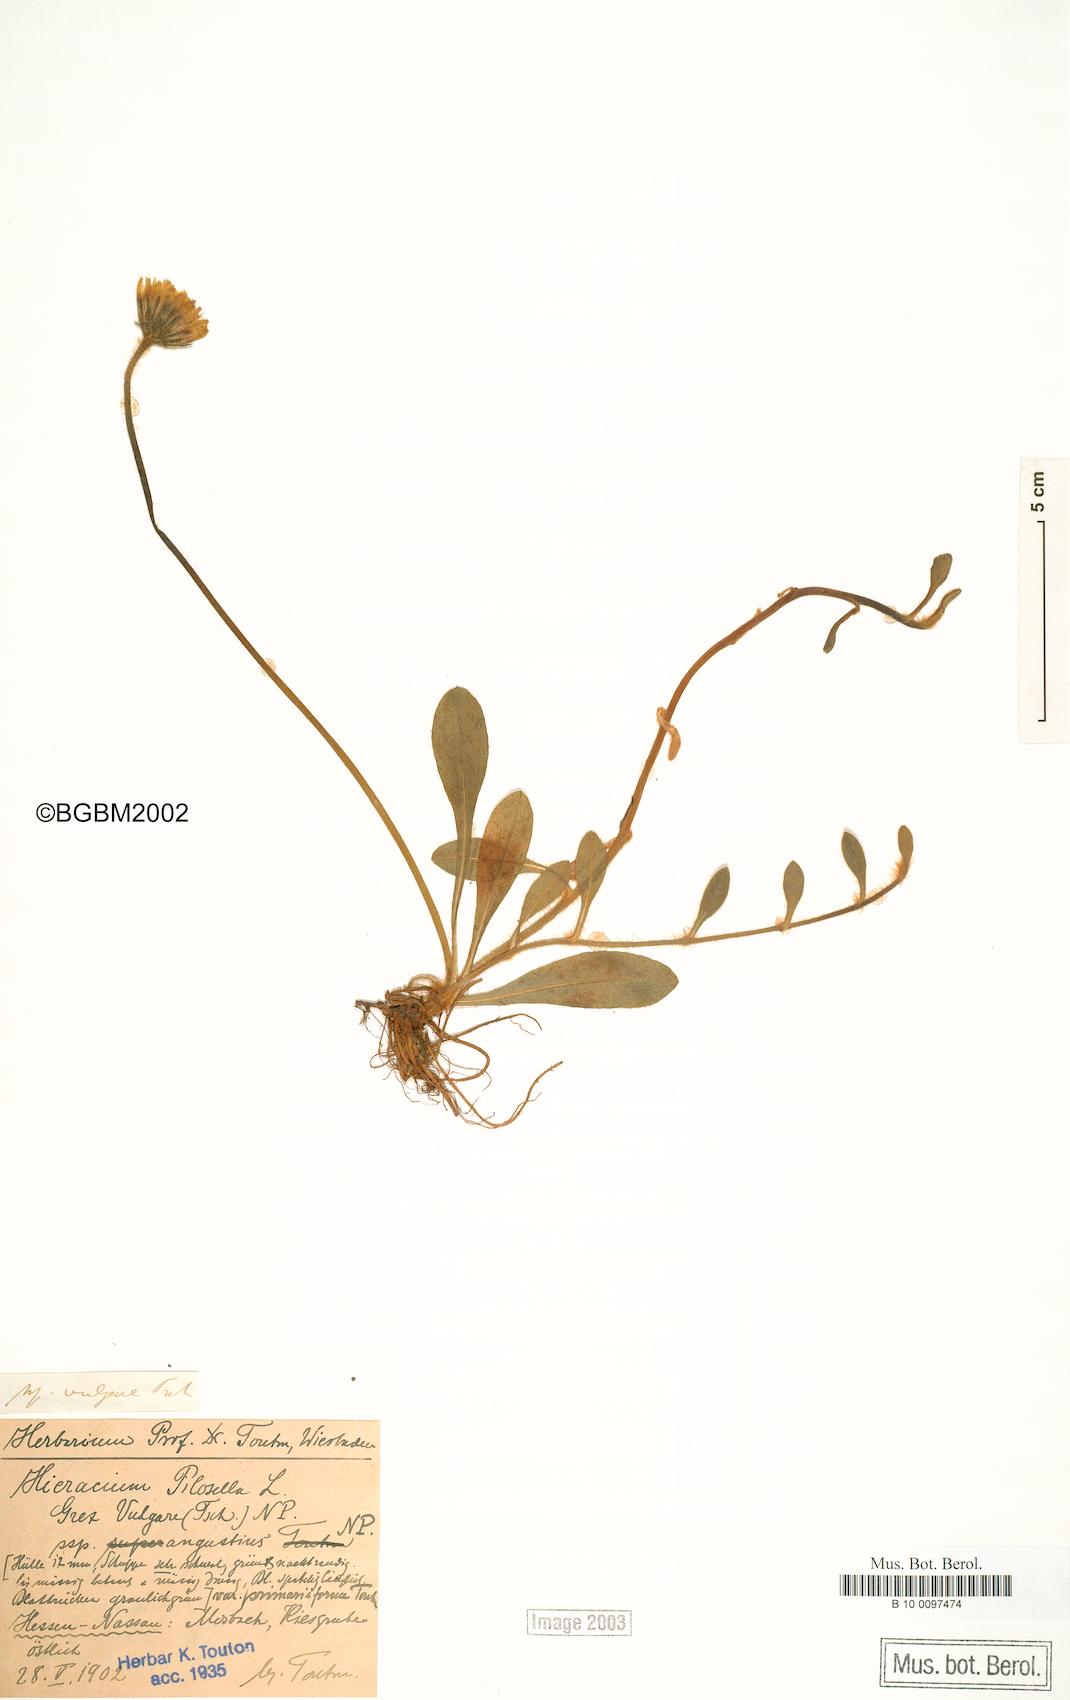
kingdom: Plantae
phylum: Tracheophyta
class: Magnoliopsida
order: Asterales
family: Asteraceae
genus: Pilosella
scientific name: Pilosella officinarum
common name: Mouse-ear hawkweed
